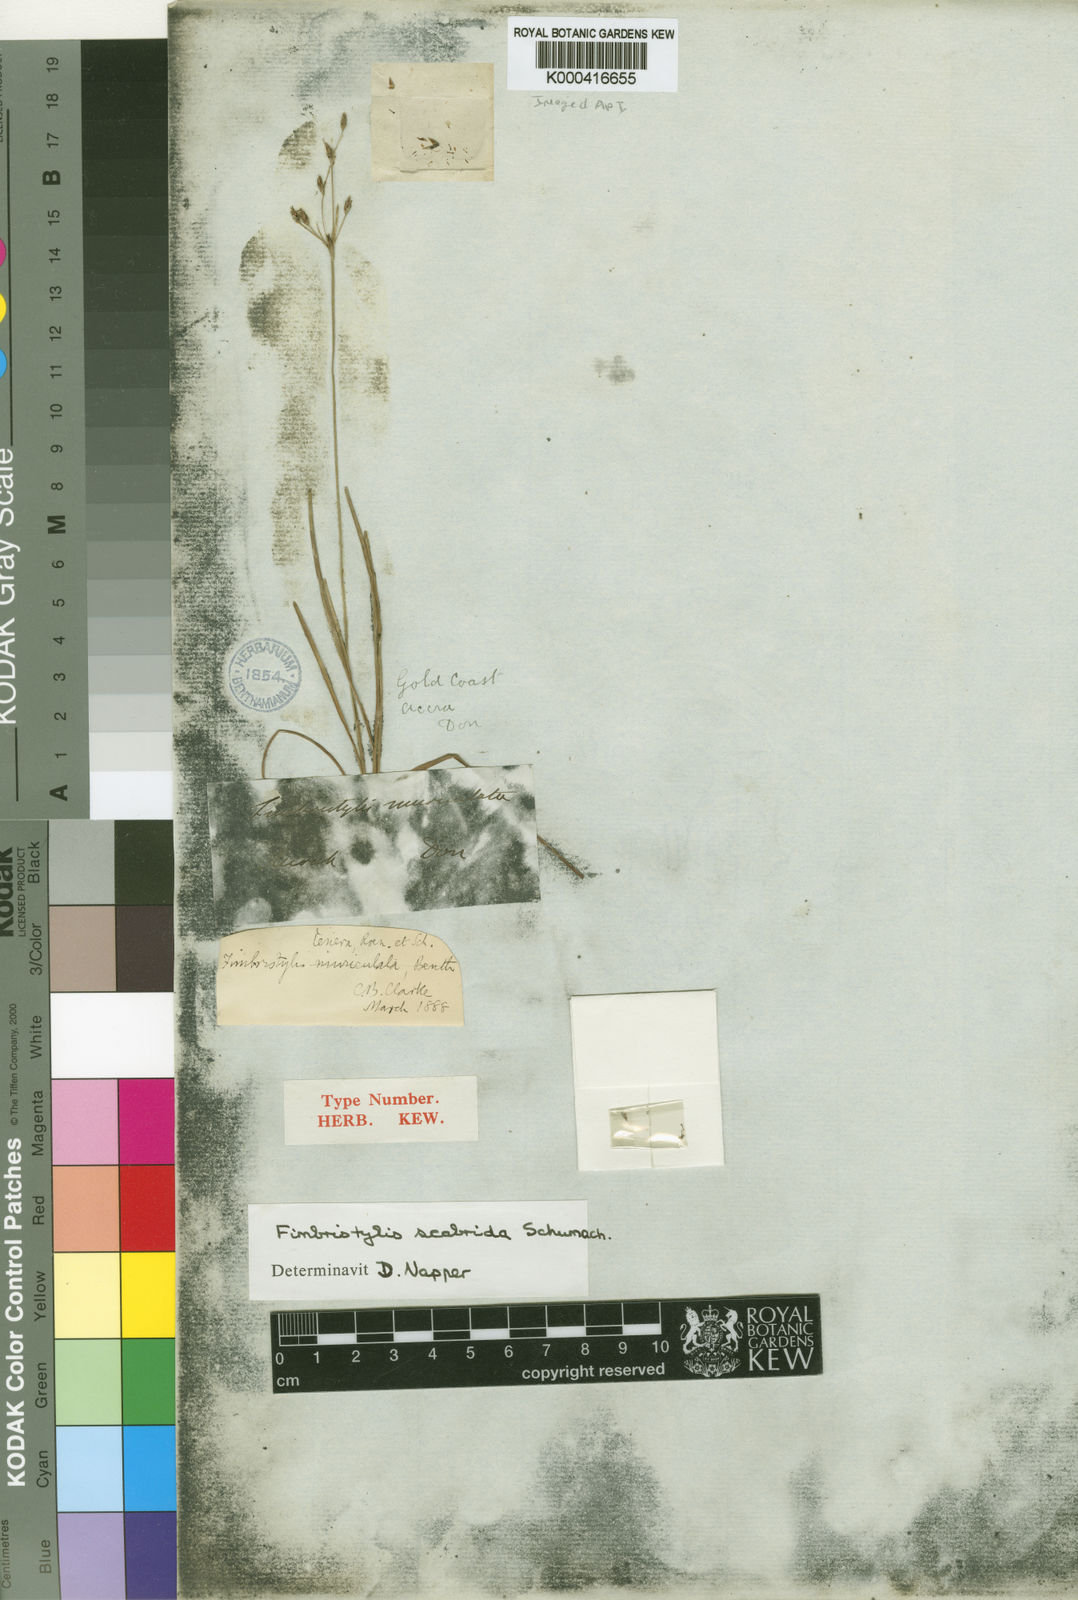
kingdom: Plantae
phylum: Tracheophyta
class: Liliopsida
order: Poales
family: Cyperaceae
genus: Fimbristylis
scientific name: Fimbristylis scabrida
